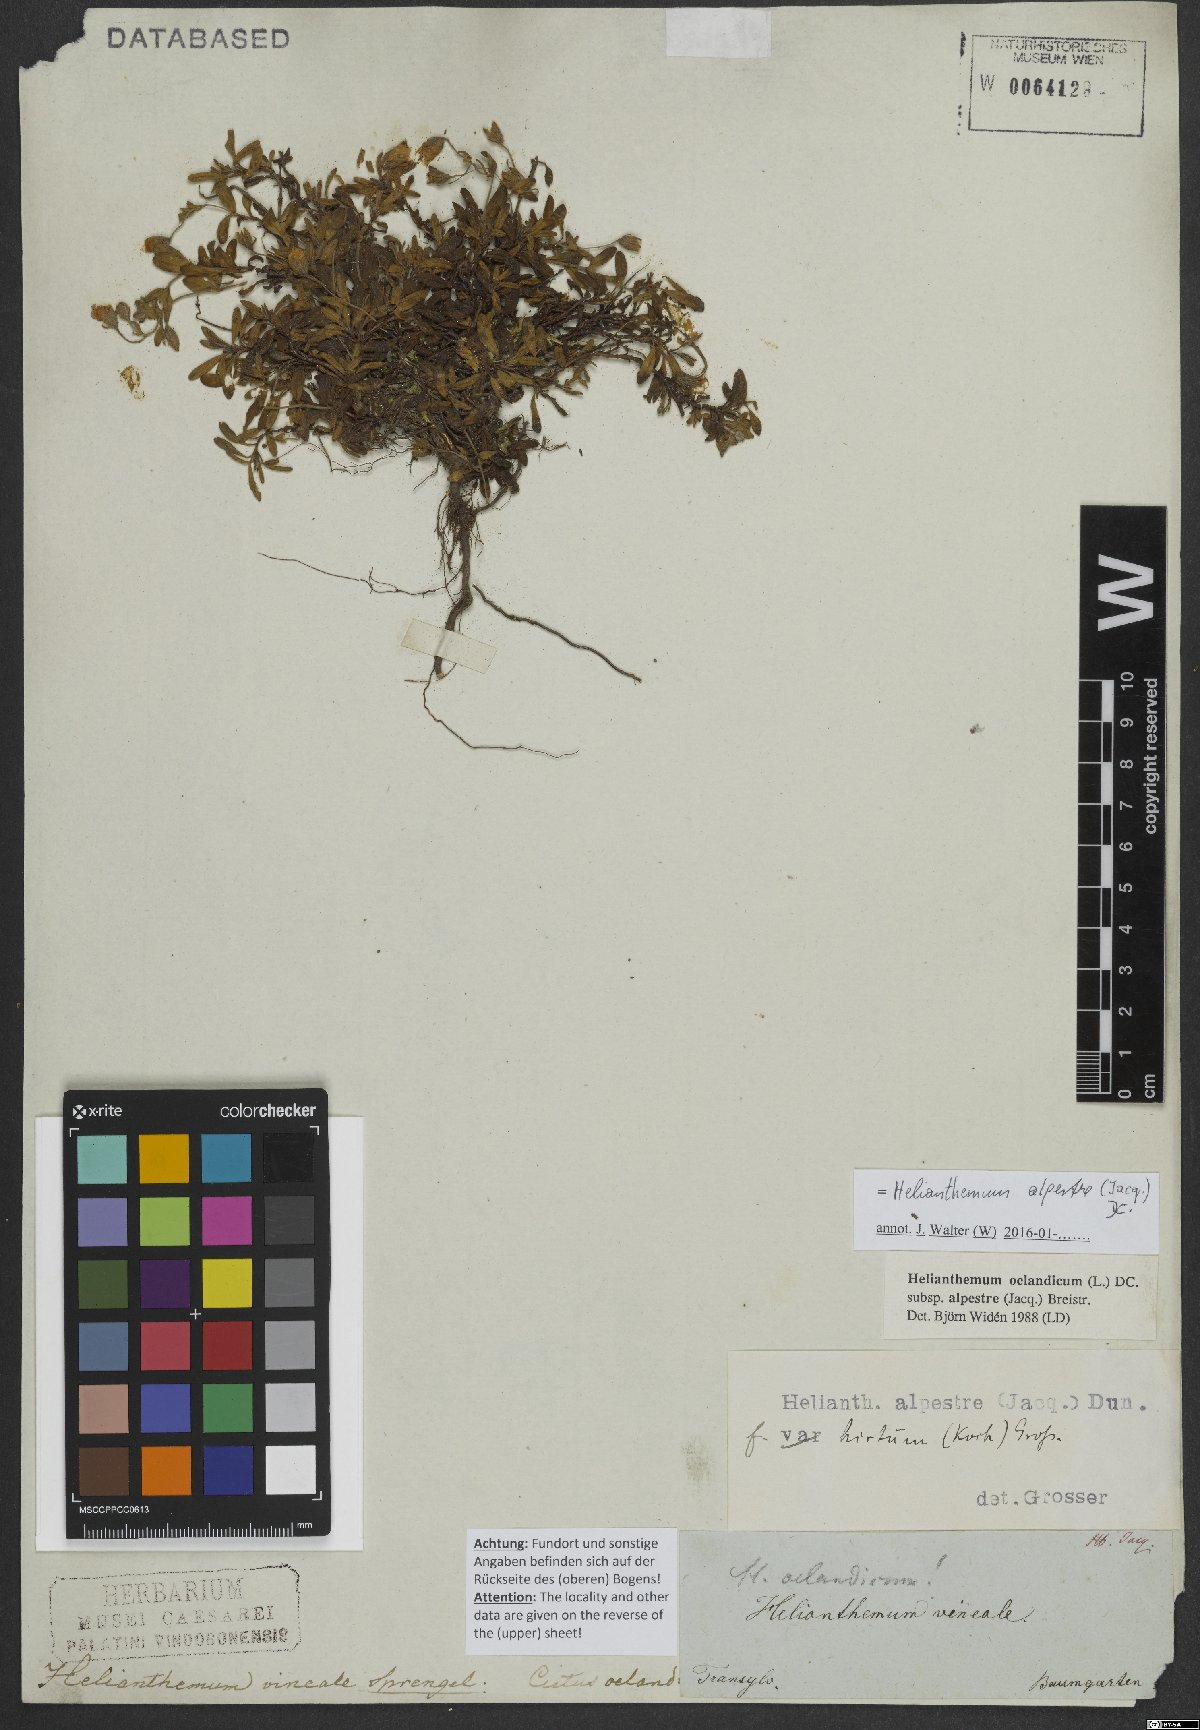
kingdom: Plantae
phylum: Tracheophyta
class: Magnoliopsida
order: Malvales
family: Cistaceae
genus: Helianthemum
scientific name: Helianthemum alpestre
